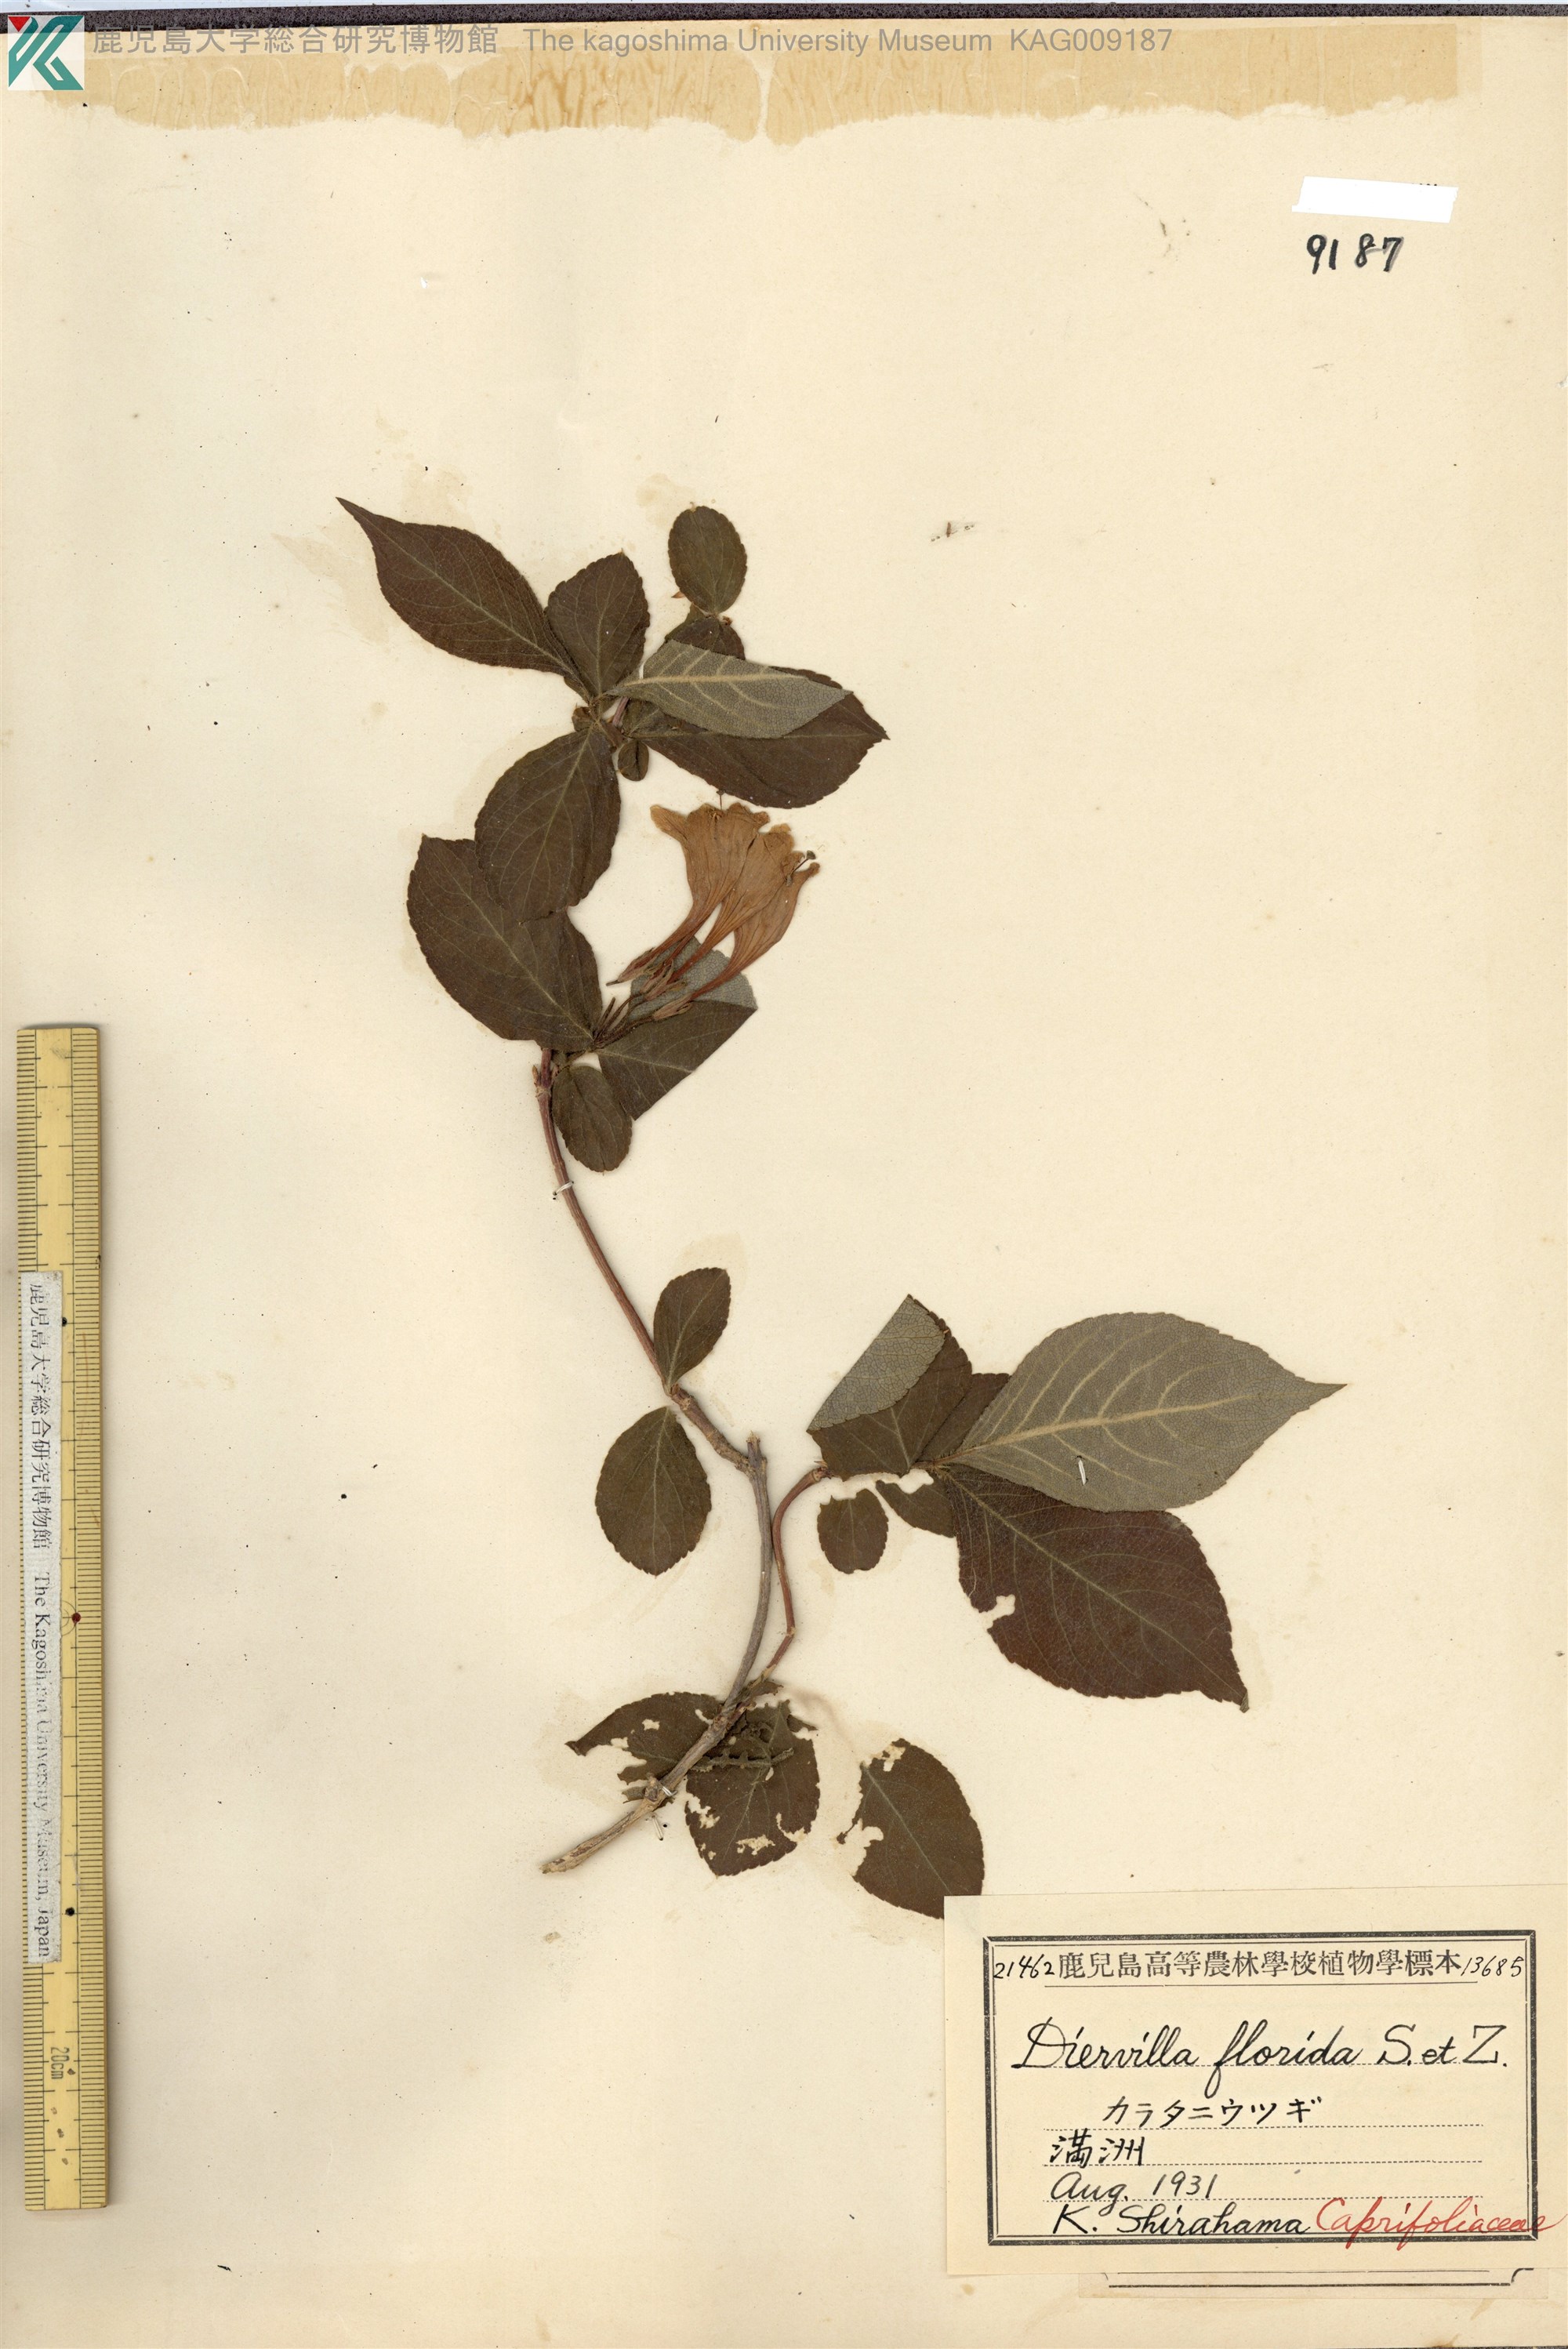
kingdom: Plantae
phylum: Tracheophyta
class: Magnoliopsida
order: Dipsacales
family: Caprifoliaceae
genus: Weigela
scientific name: Weigela florida
